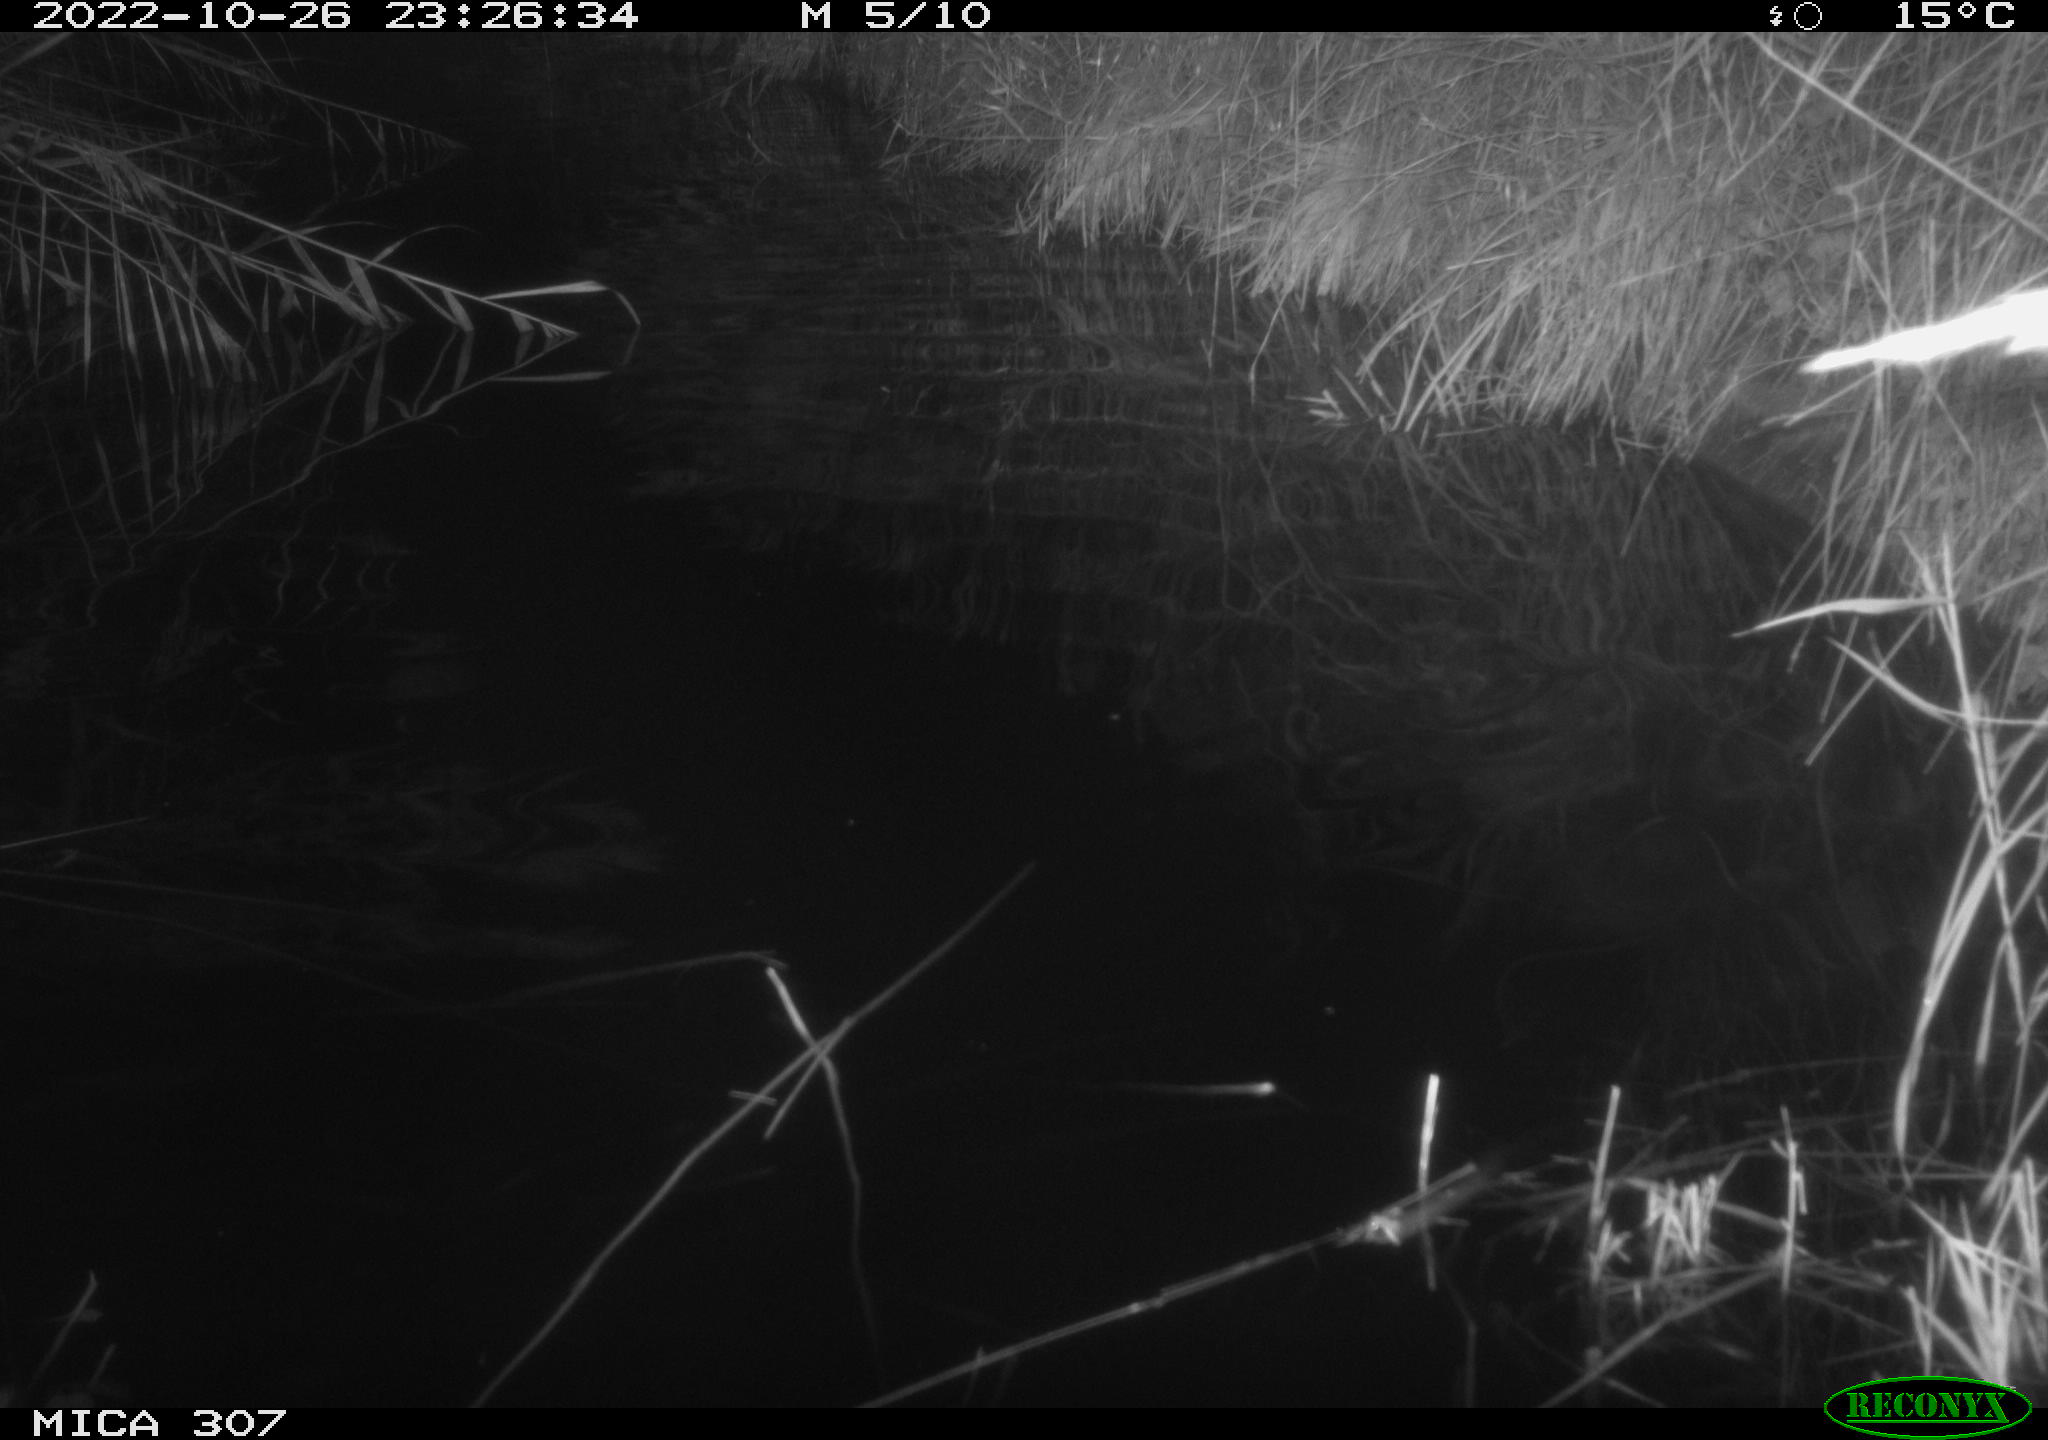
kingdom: Animalia
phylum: Chordata
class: Aves
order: Anseriformes
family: Anatidae
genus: Anas
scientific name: Anas
